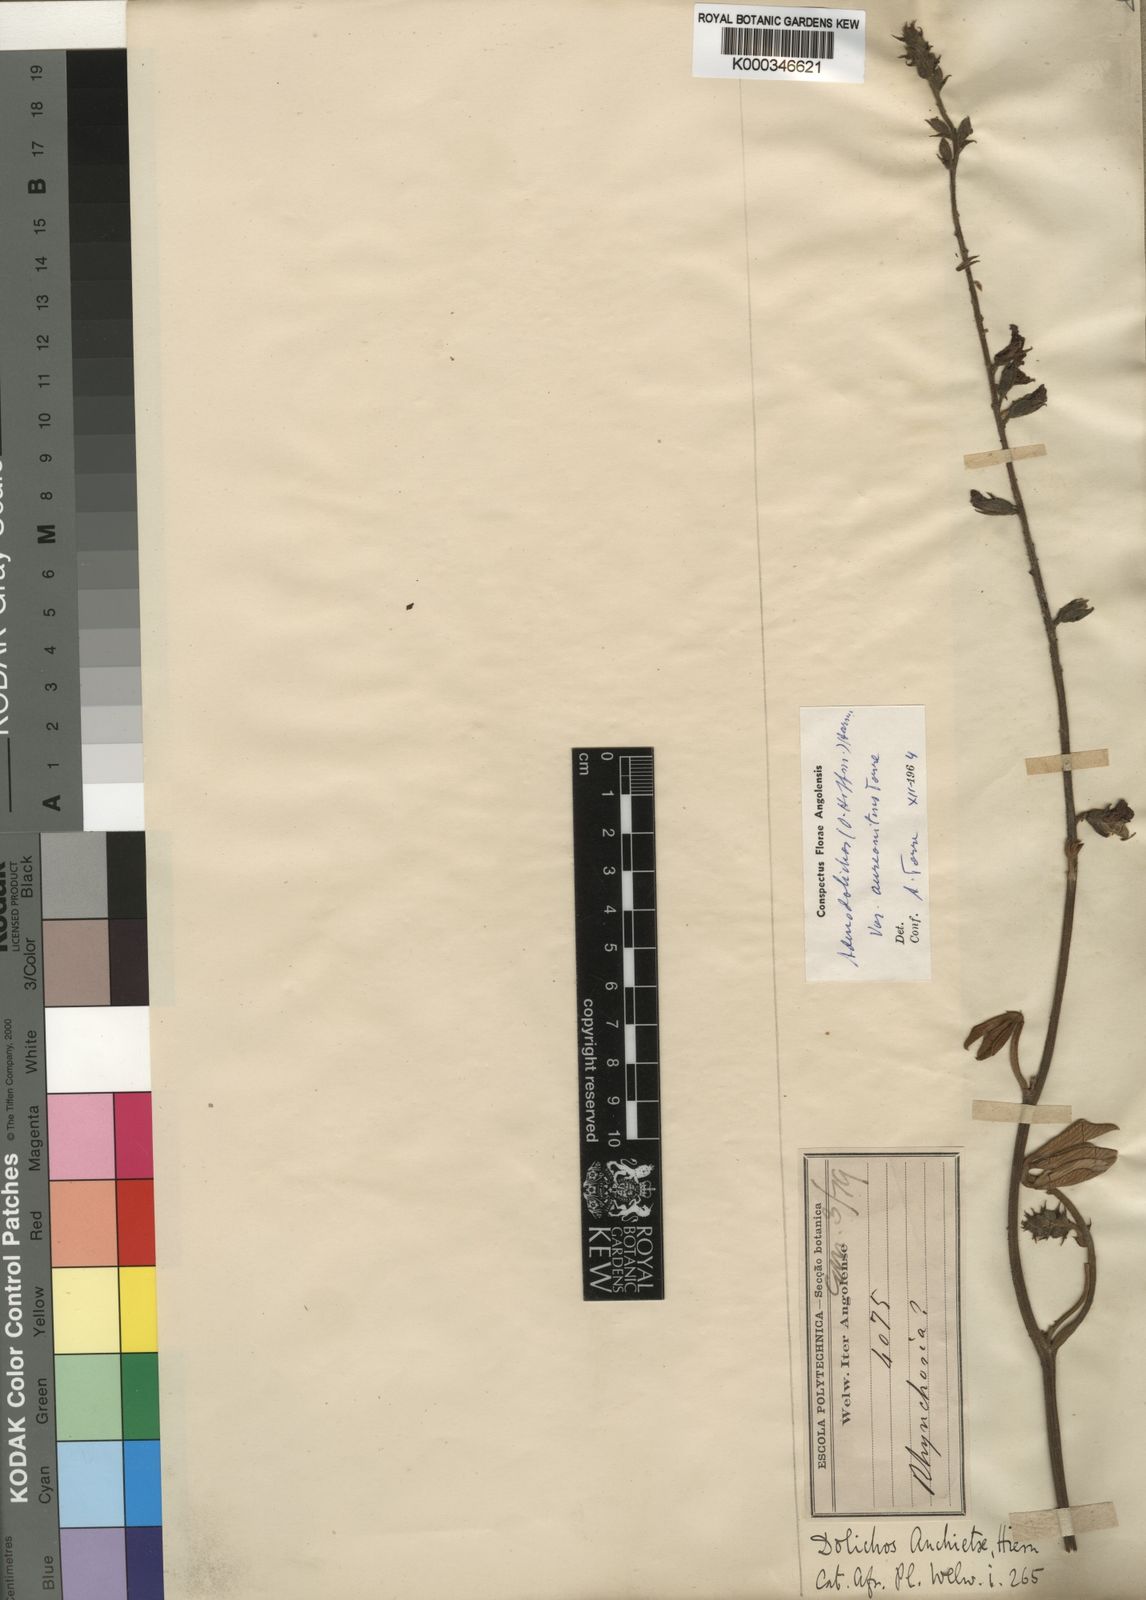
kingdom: Plantae
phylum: Tracheophyta
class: Magnoliopsida
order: Fabales
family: Fabaceae
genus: Adenodolichos
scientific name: Adenodolichos rhomboideus
